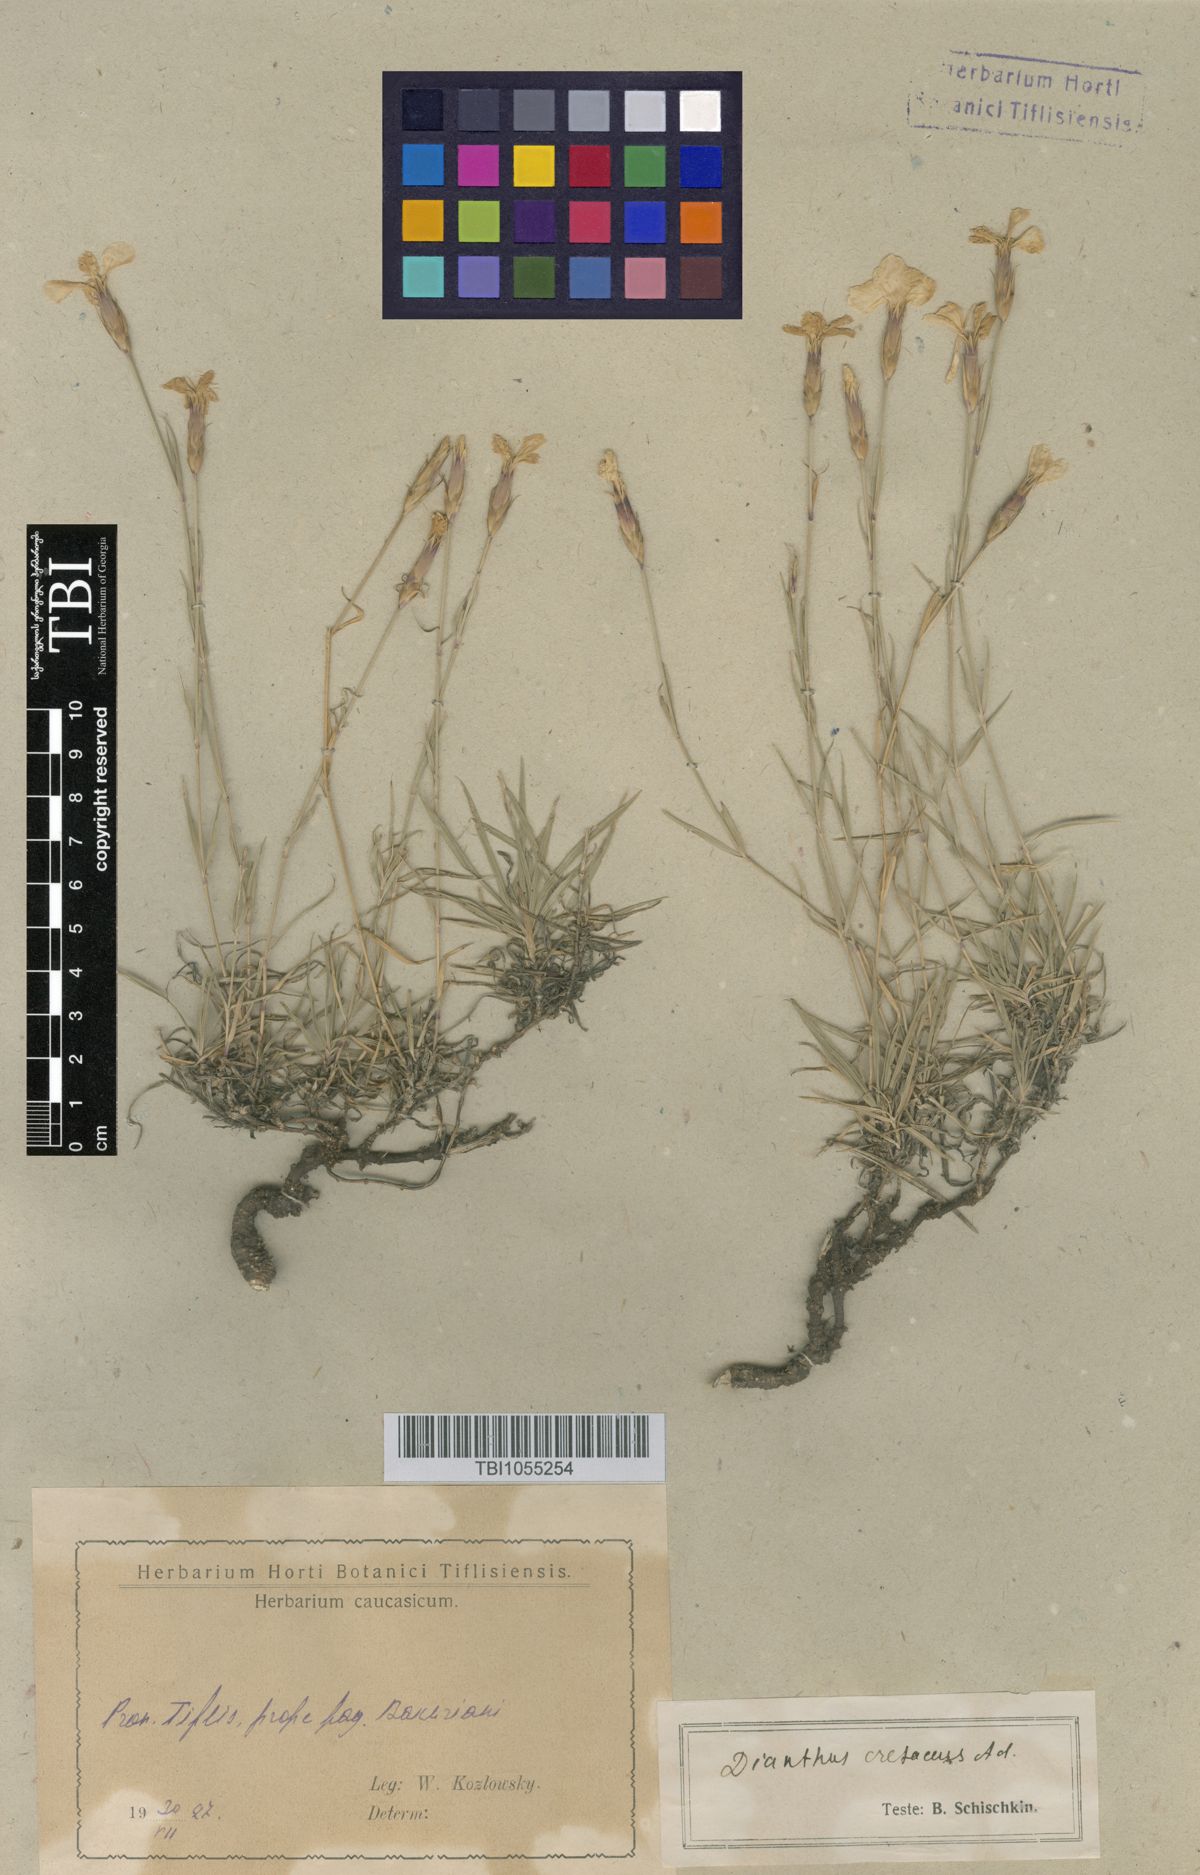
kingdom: Plantae
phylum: Tracheophyta
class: Magnoliopsida
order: Caryophyllales
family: Caryophyllaceae
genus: Dianthus
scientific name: Dianthus cretaceus
